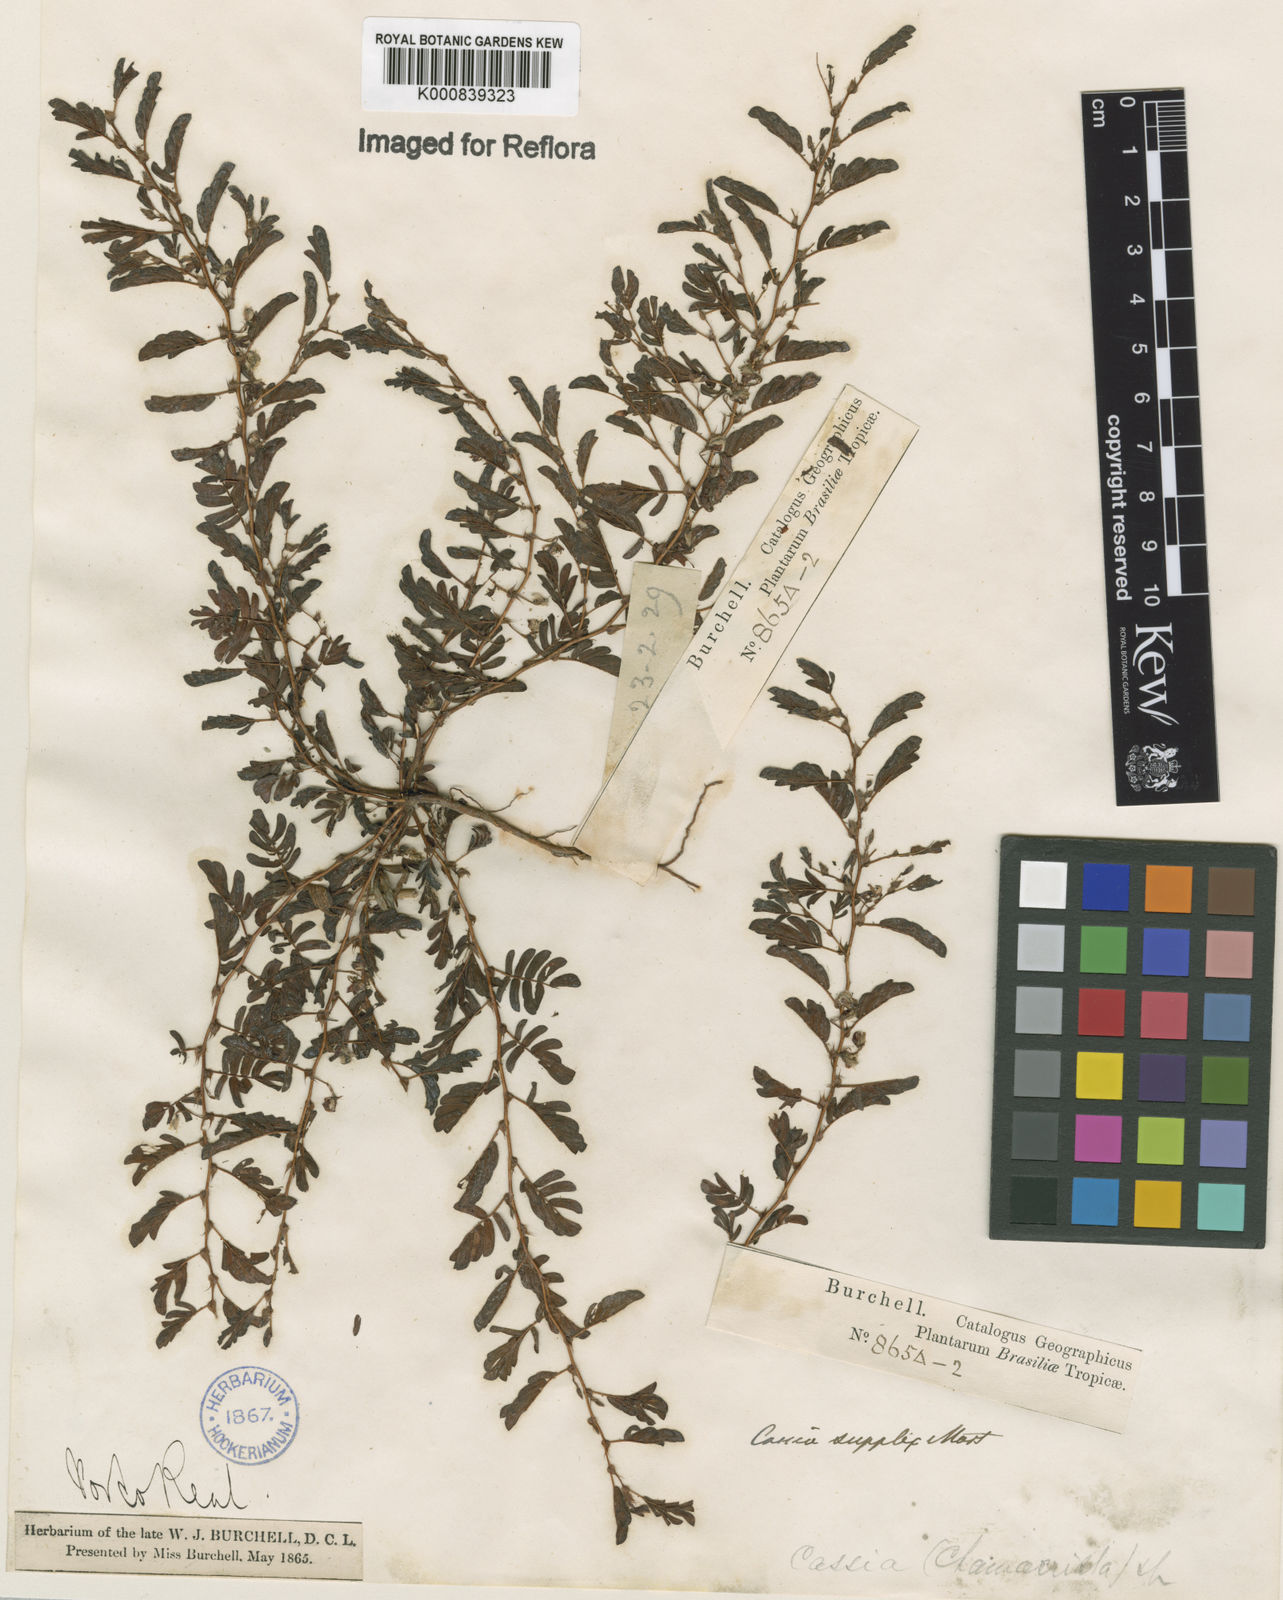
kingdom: Plantae
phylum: Tracheophyta
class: Magnoliopsida
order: Fabales
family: Fabaceae
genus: Chamaecrista
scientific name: Chamaecrista supplex
